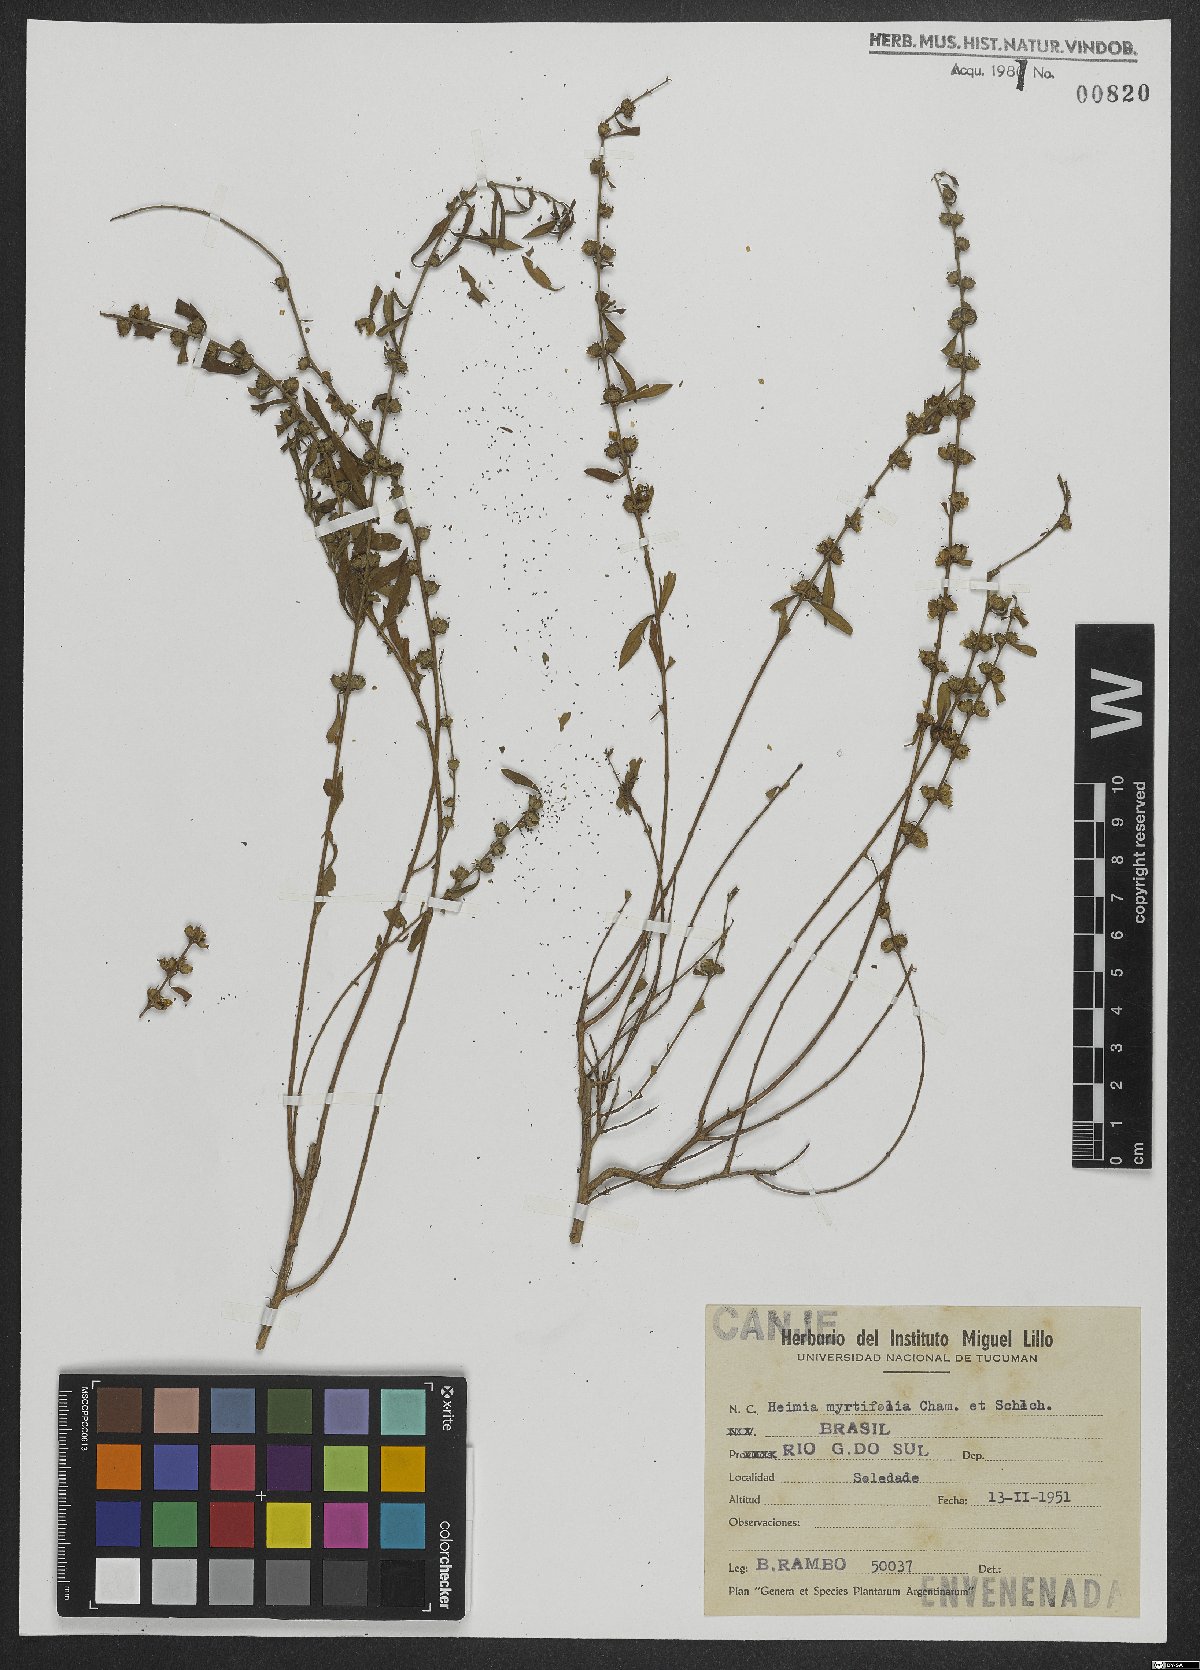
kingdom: Plantae
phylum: Tracheophyta
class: Magnoliopsida
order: Myrtales
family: Lythraceae
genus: Heimia
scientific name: Heimia apetala
